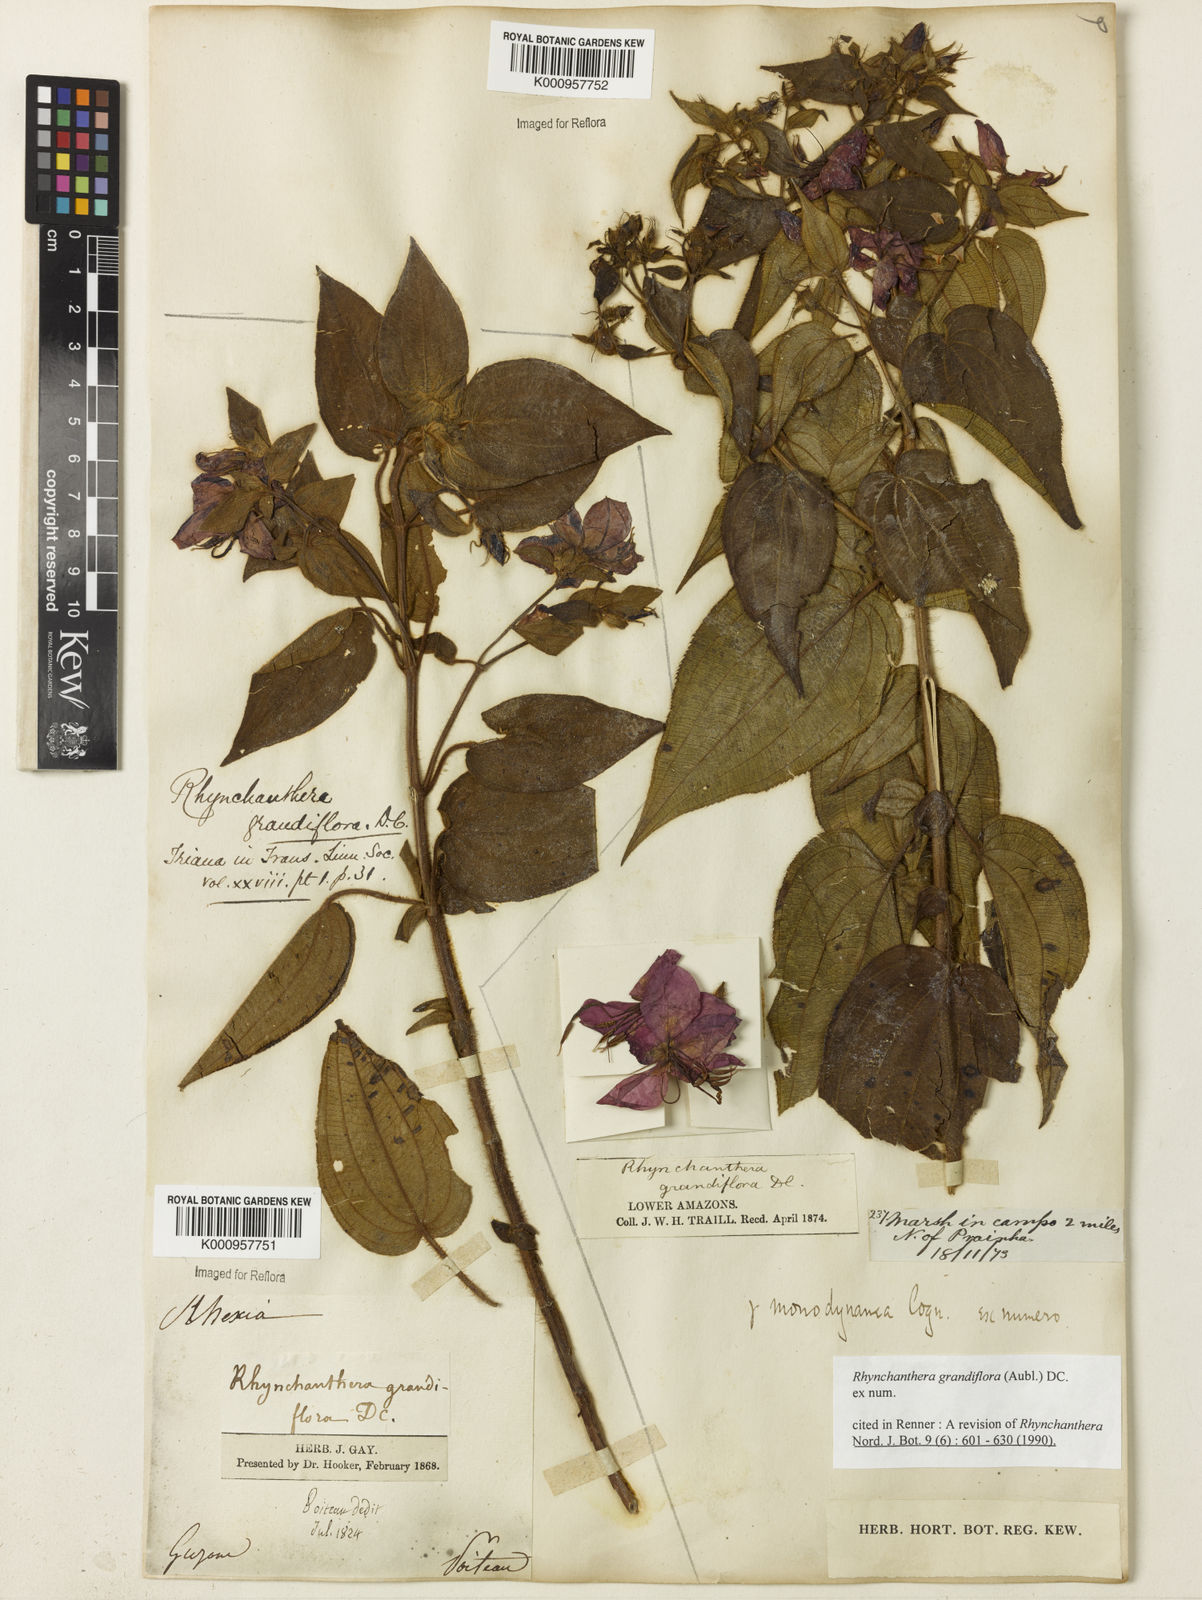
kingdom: Plantae
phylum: Tracheophyta
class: Magnoliopsida
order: Myrtales
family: Melastomataceae
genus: Rhynchanthera
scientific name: Rhynchanthera grandiflora
